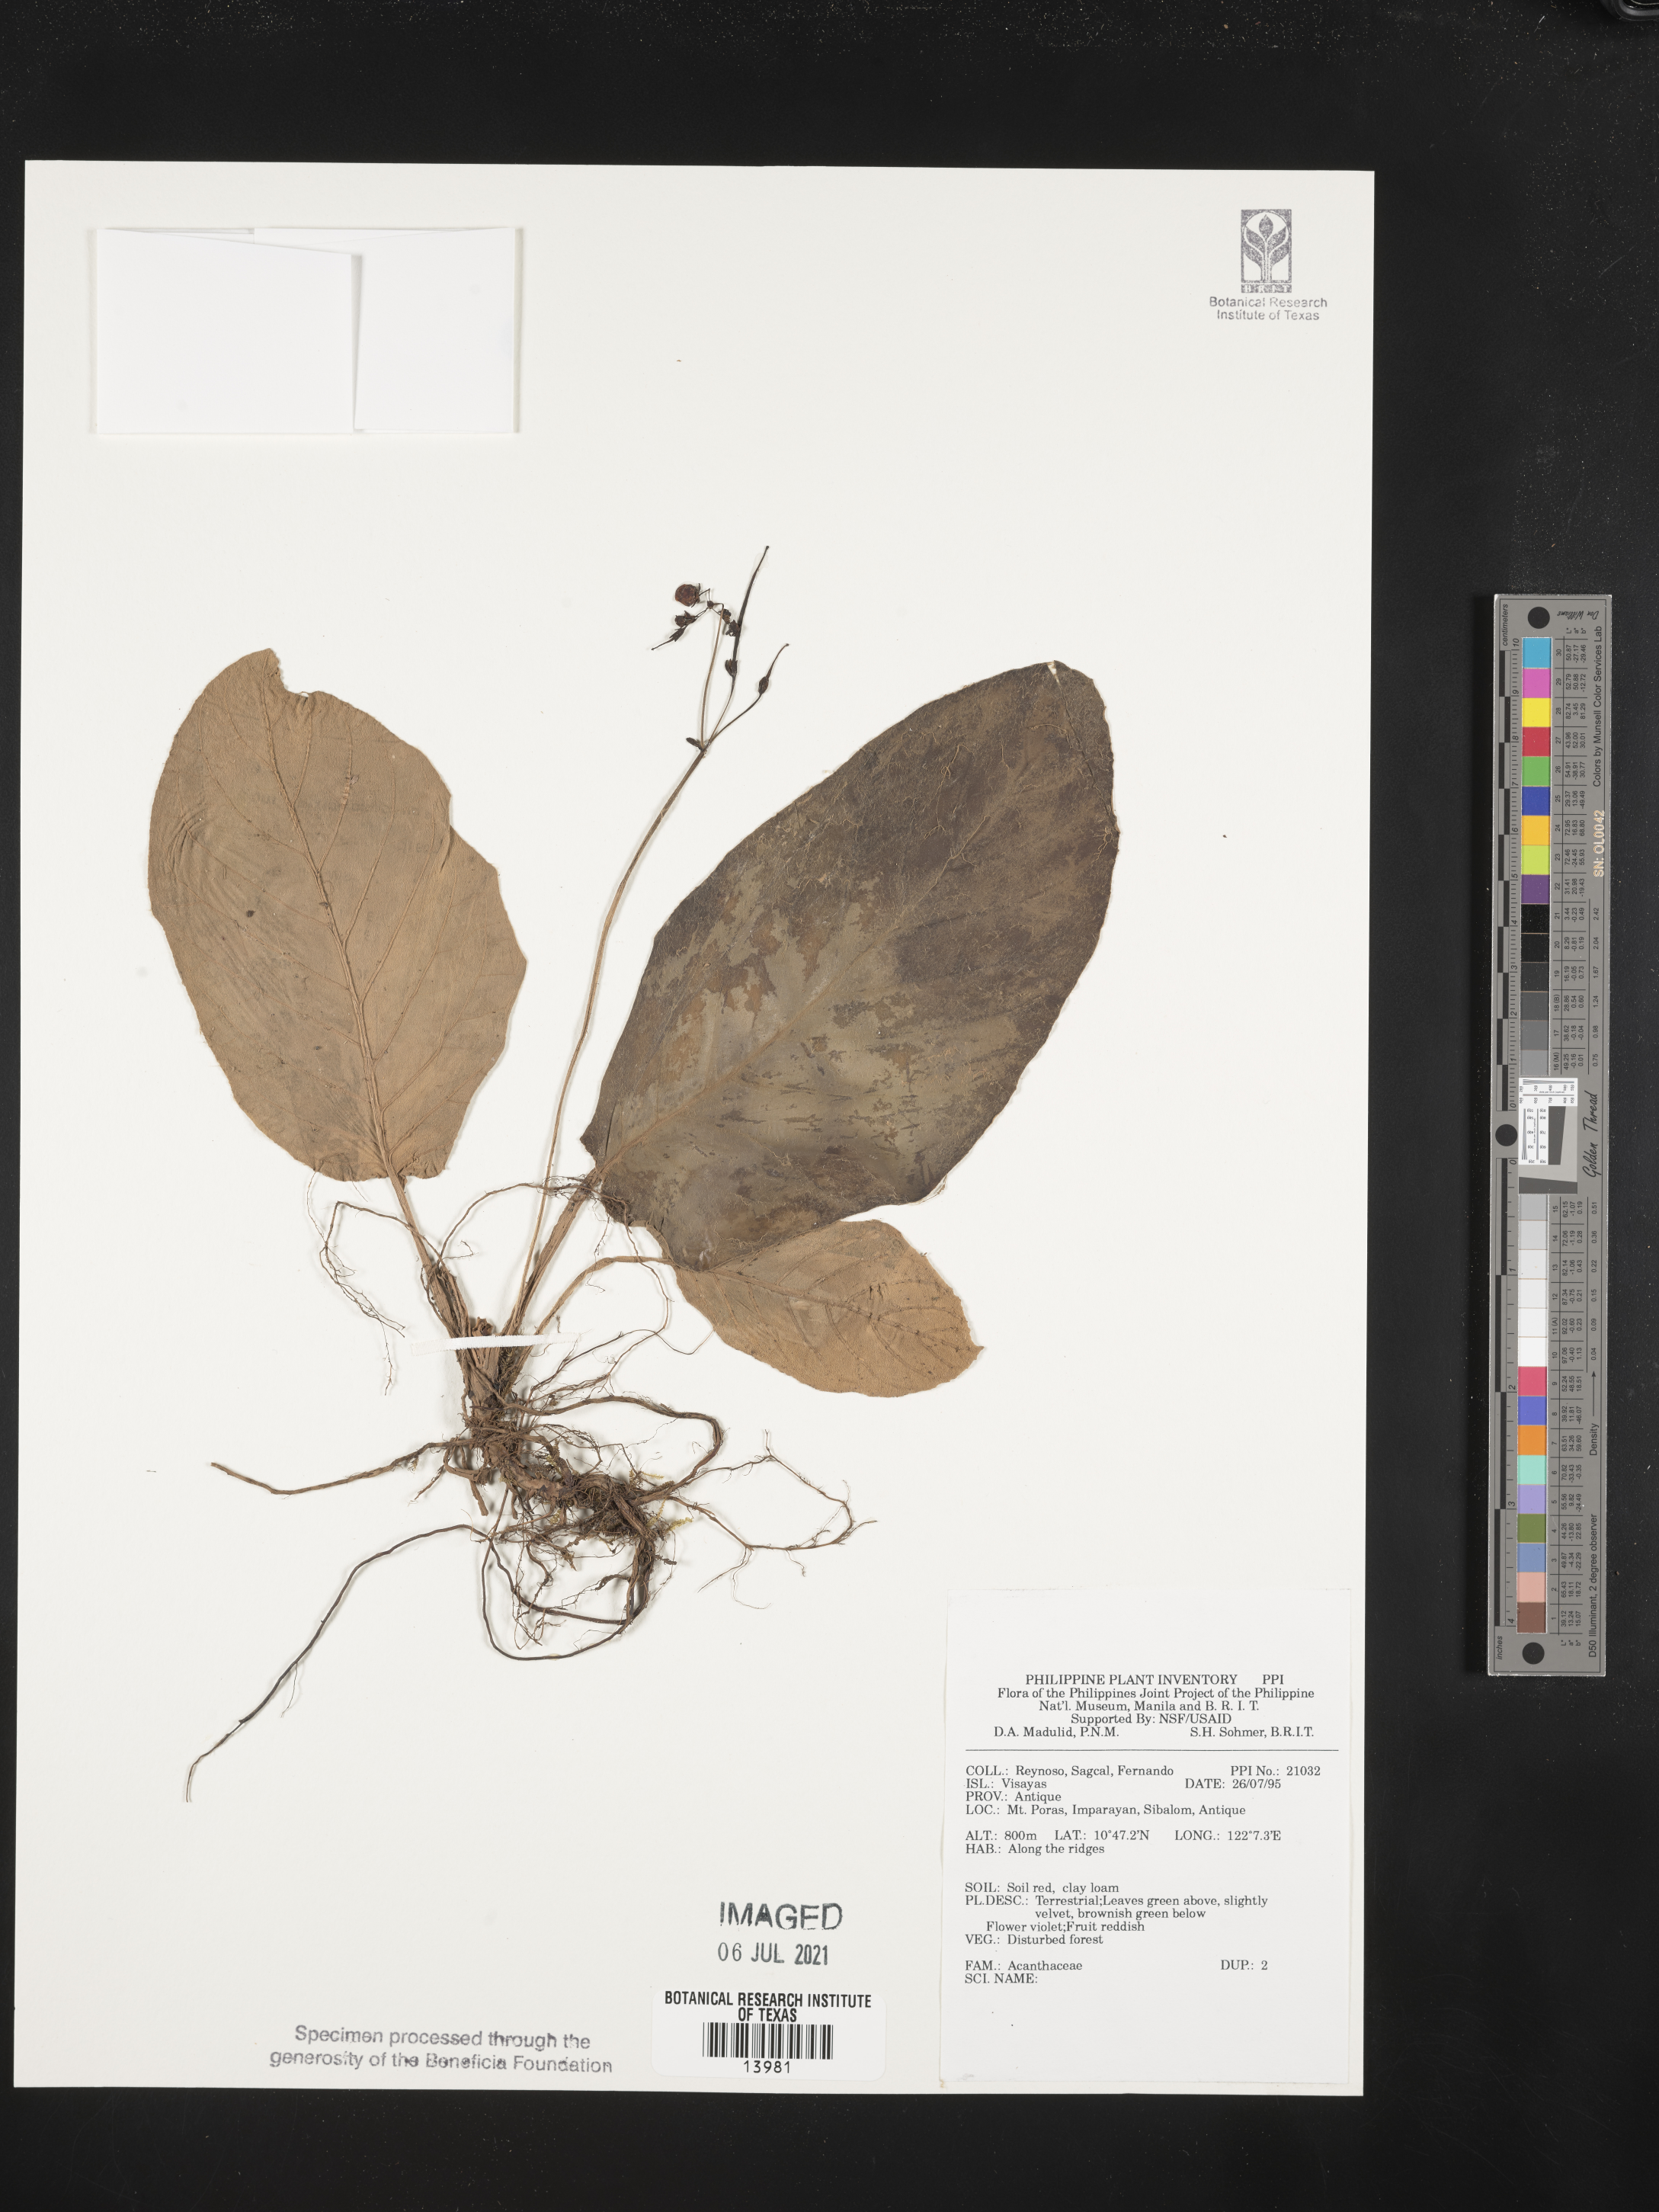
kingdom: Plantae
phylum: Tracheophyta
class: Magnoliopsida
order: Lamiales
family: Acanthaceae
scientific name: Acanthaceae
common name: Acanthaceae
